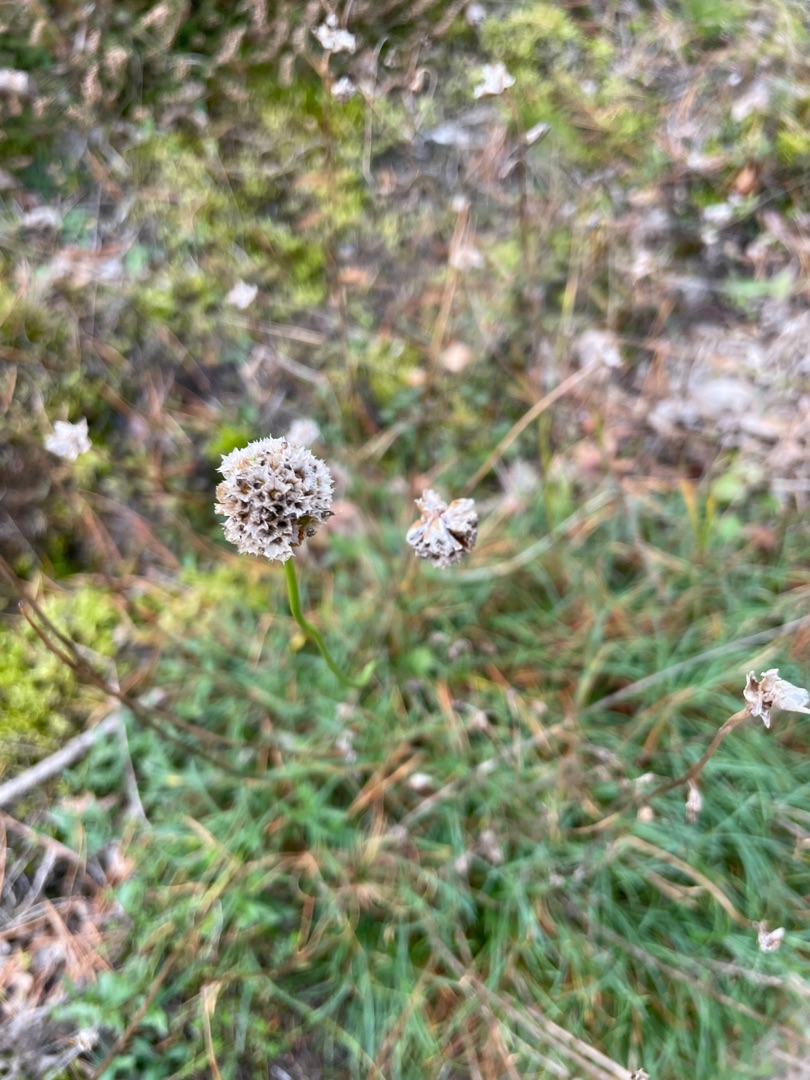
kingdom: Plantae
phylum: Tracheophyta
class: Magnoliopsida
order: Caryophyllales
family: Plumbaginaceae
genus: Armeria
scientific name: Armeria maritima
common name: Engelskgræs
